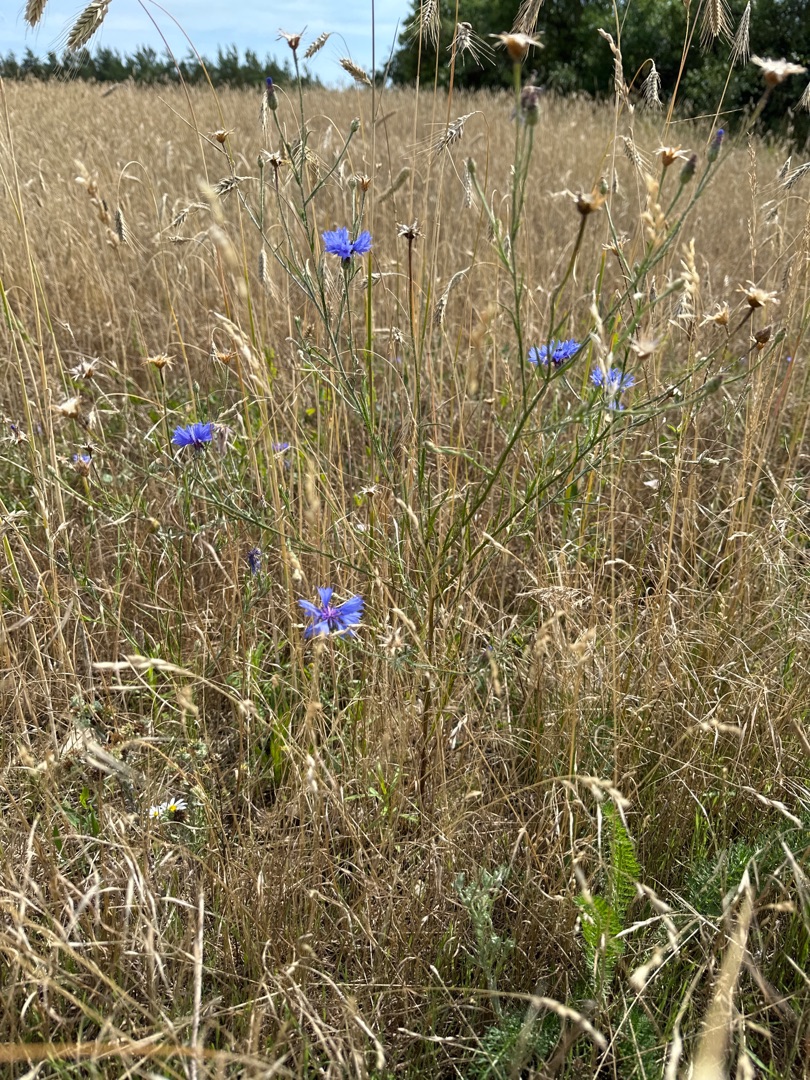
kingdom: Plantae
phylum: Tracheophyta
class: Magnoliopsida
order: Asterales
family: Asteraceae
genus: Centaurea
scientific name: Centaurea cyanus
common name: Kornblomst
